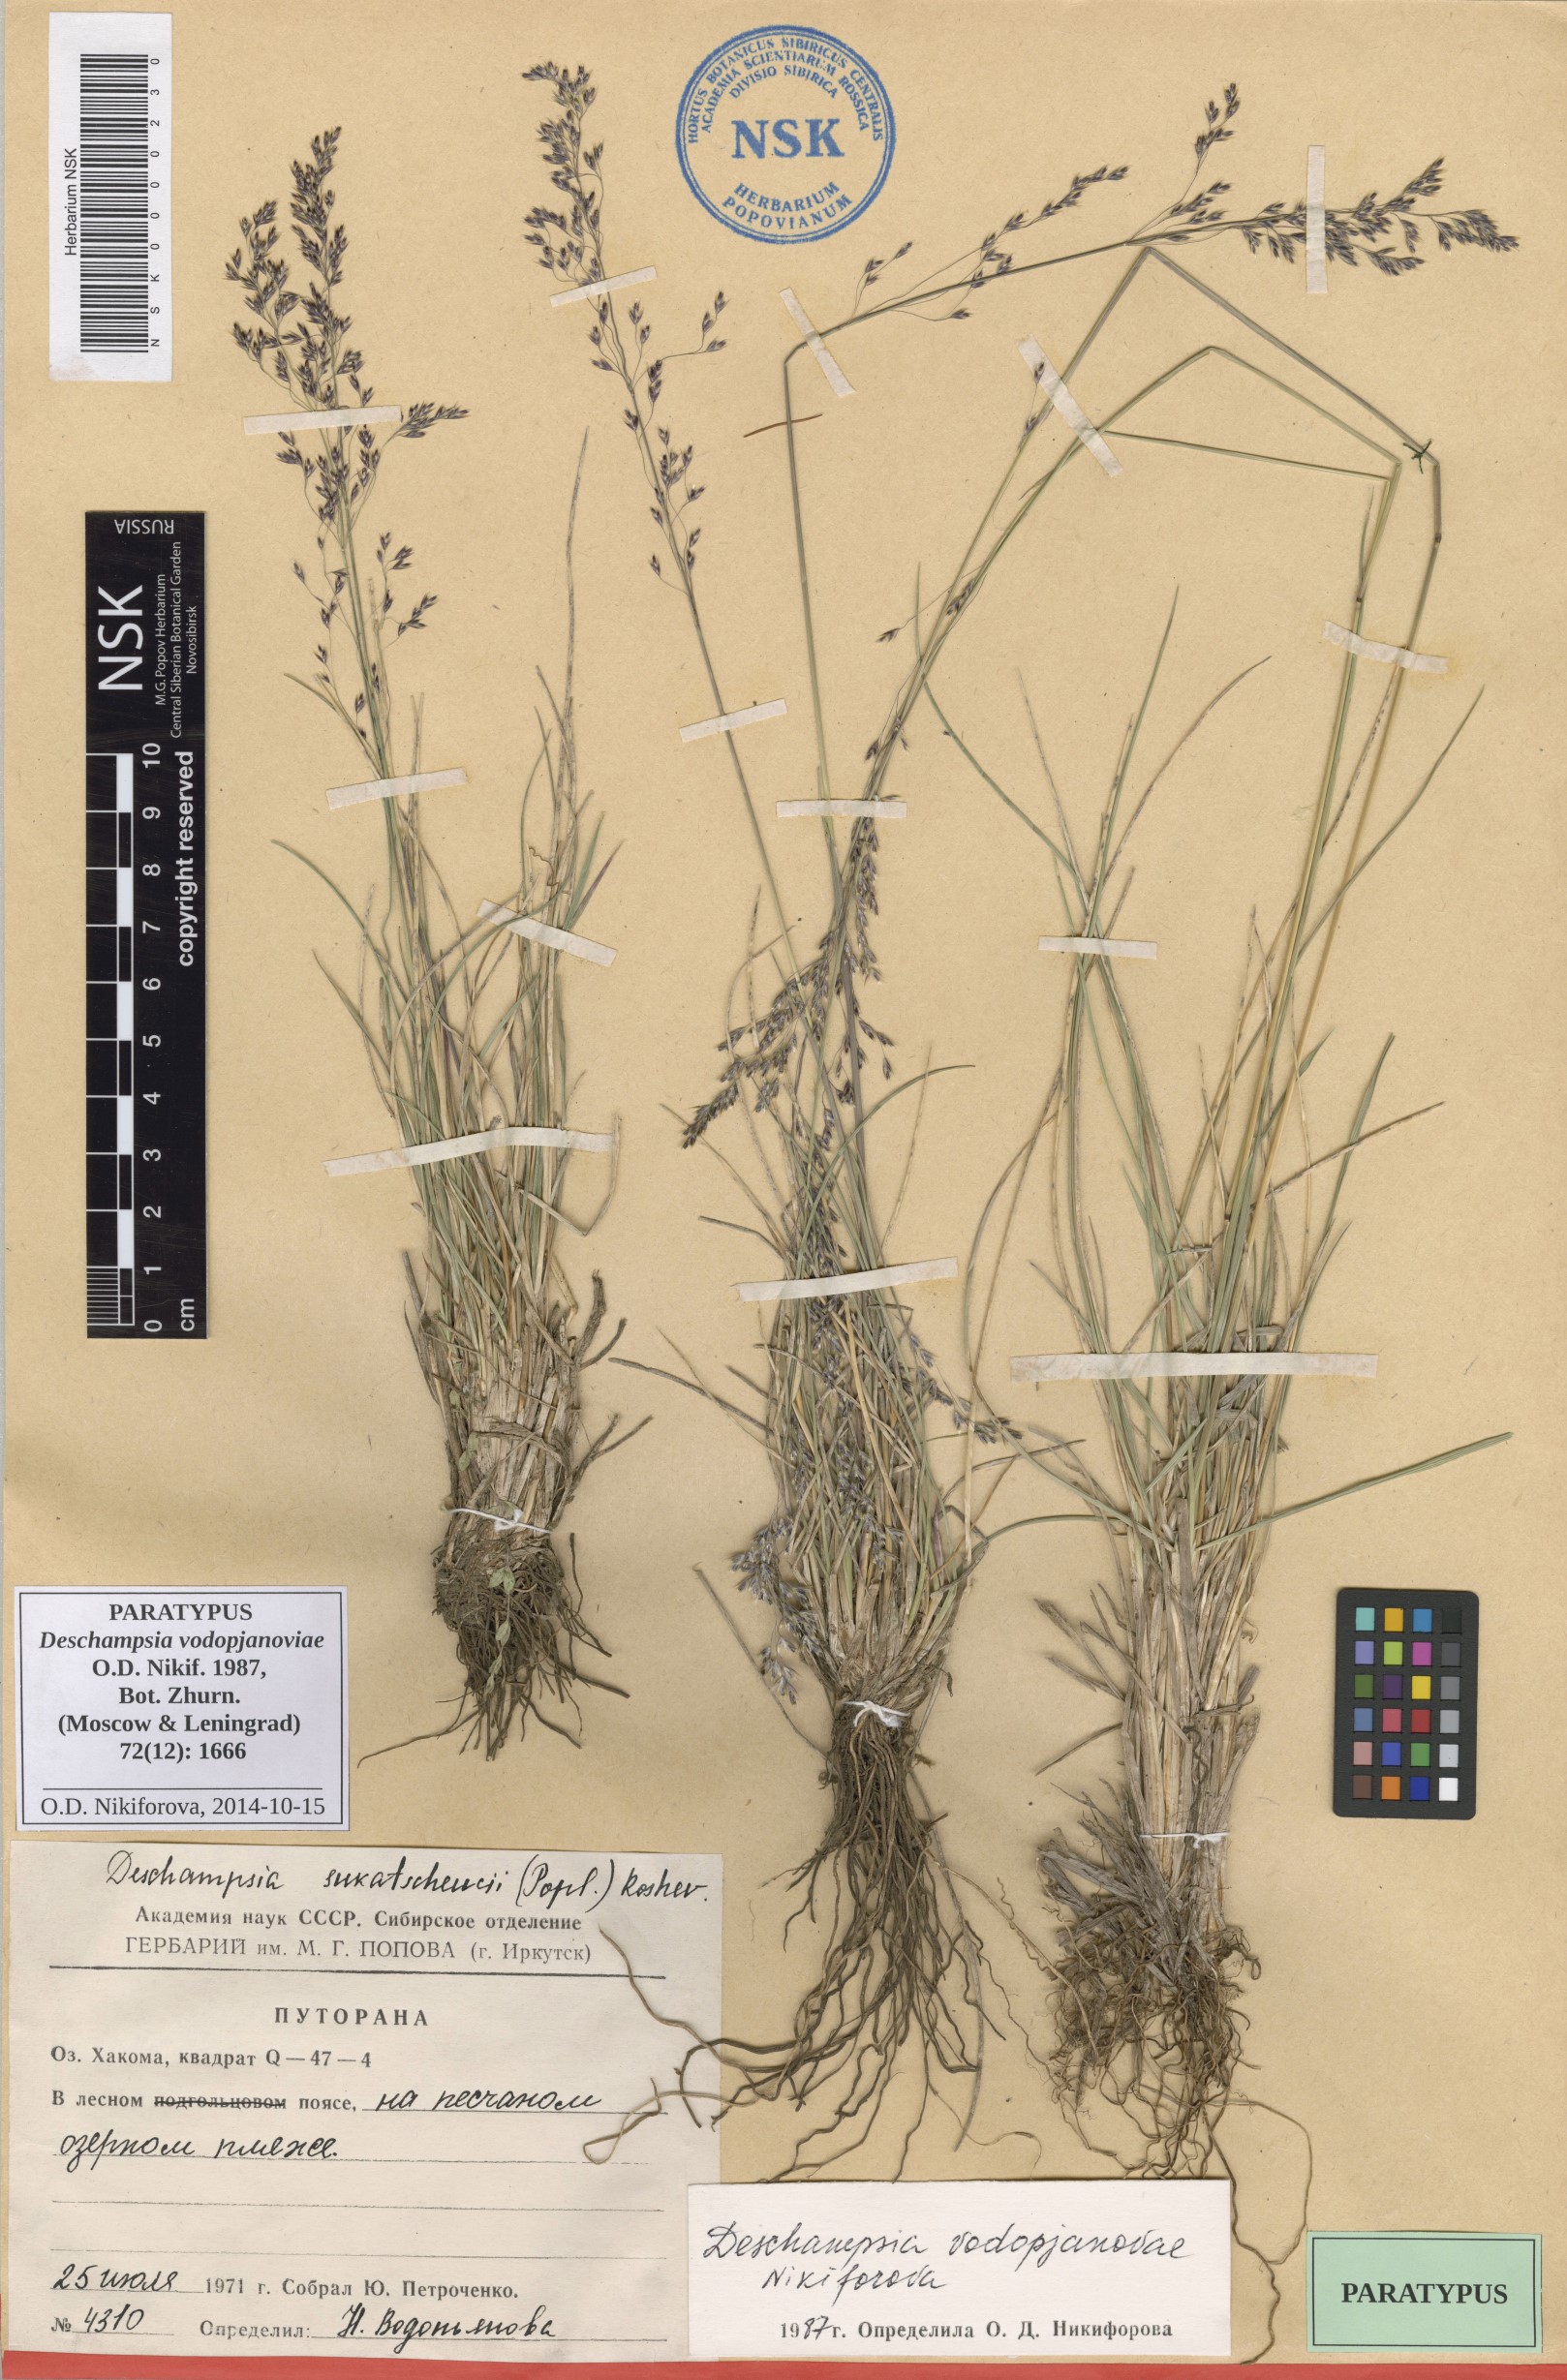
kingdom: Plantae
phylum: Tracheophyta
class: Liliopsida
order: Poales
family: Poaceae
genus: Deschampsia
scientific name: Deschampsia cespitosa
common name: Tufted hair-grass
